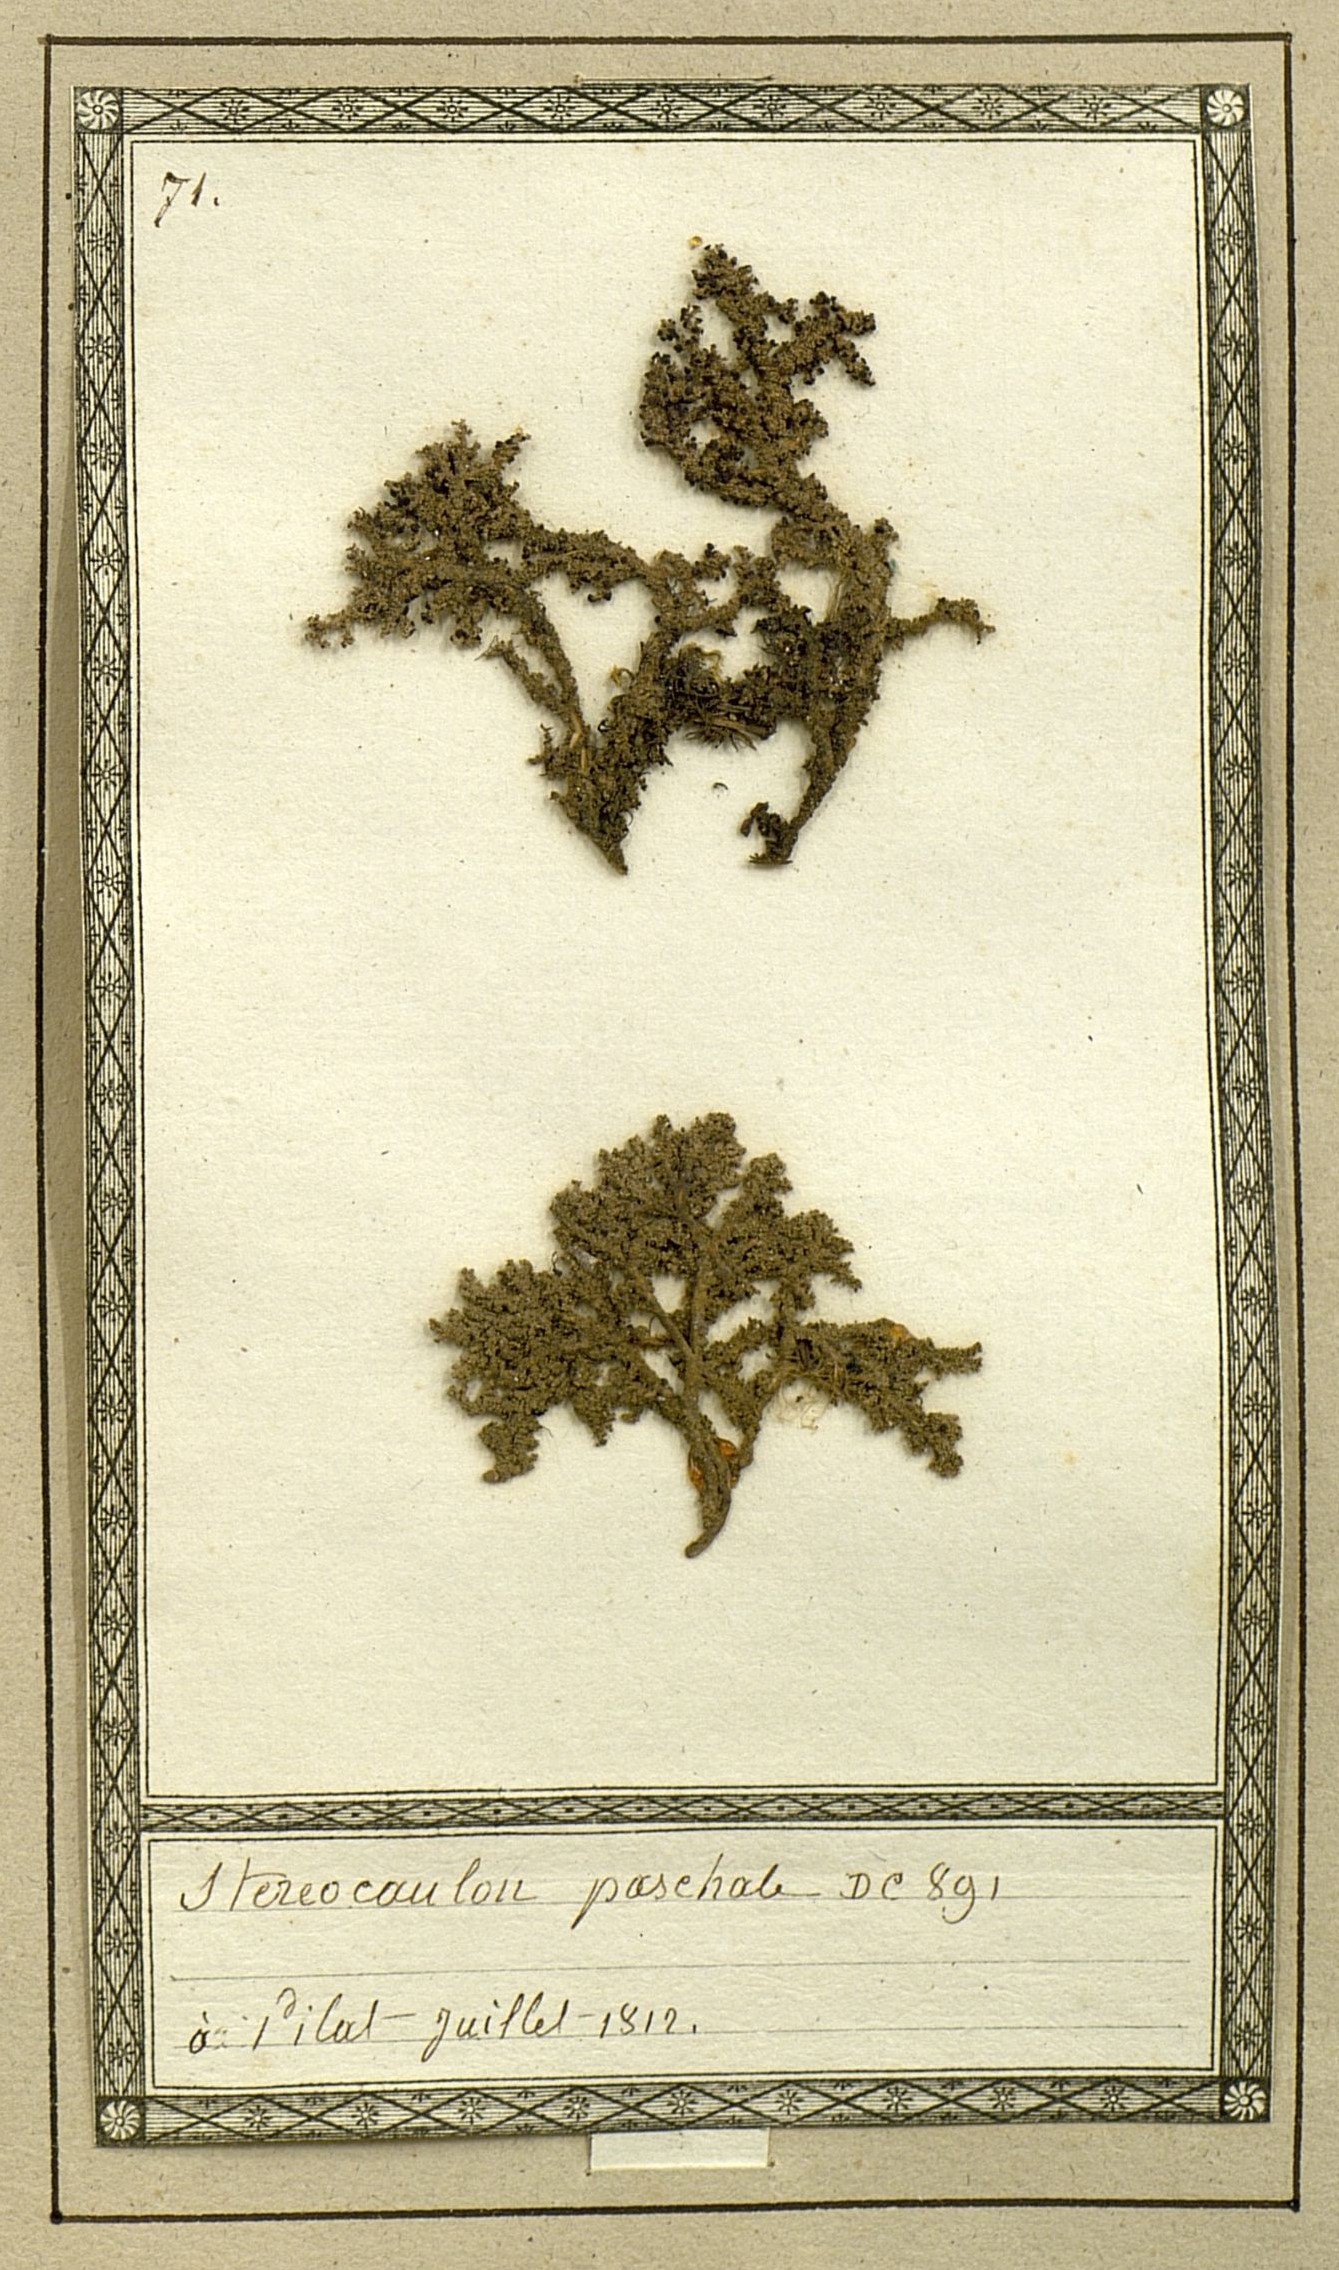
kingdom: Fungi
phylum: Ascomycota
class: Lecanoromycetes
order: Lecanorales
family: Stereocaulaceae
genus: Stereocaulon
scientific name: Stereocaulon paschale
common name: Cottontail foam lichen
